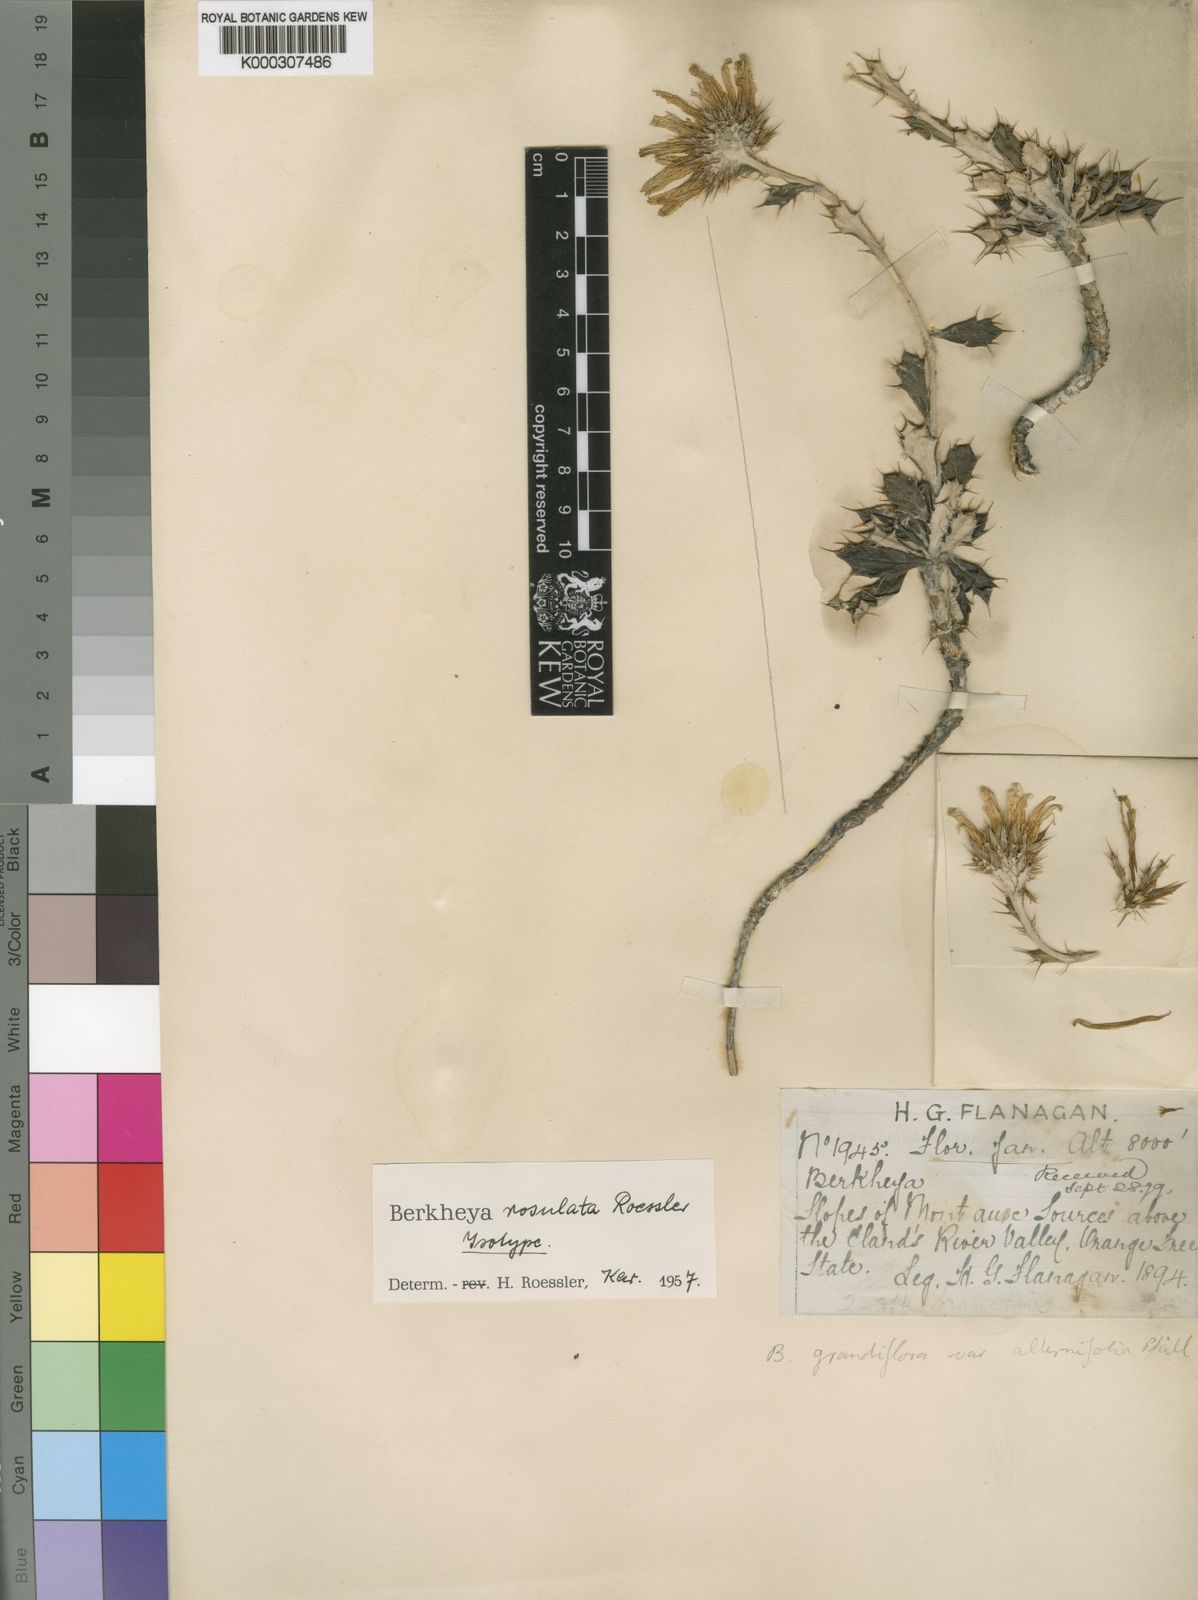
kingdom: Plantae
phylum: Tracheophyta
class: Magnoliopsida
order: Asterales
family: Asteraceae
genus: Berkheya
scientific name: Berkheya rosulata
